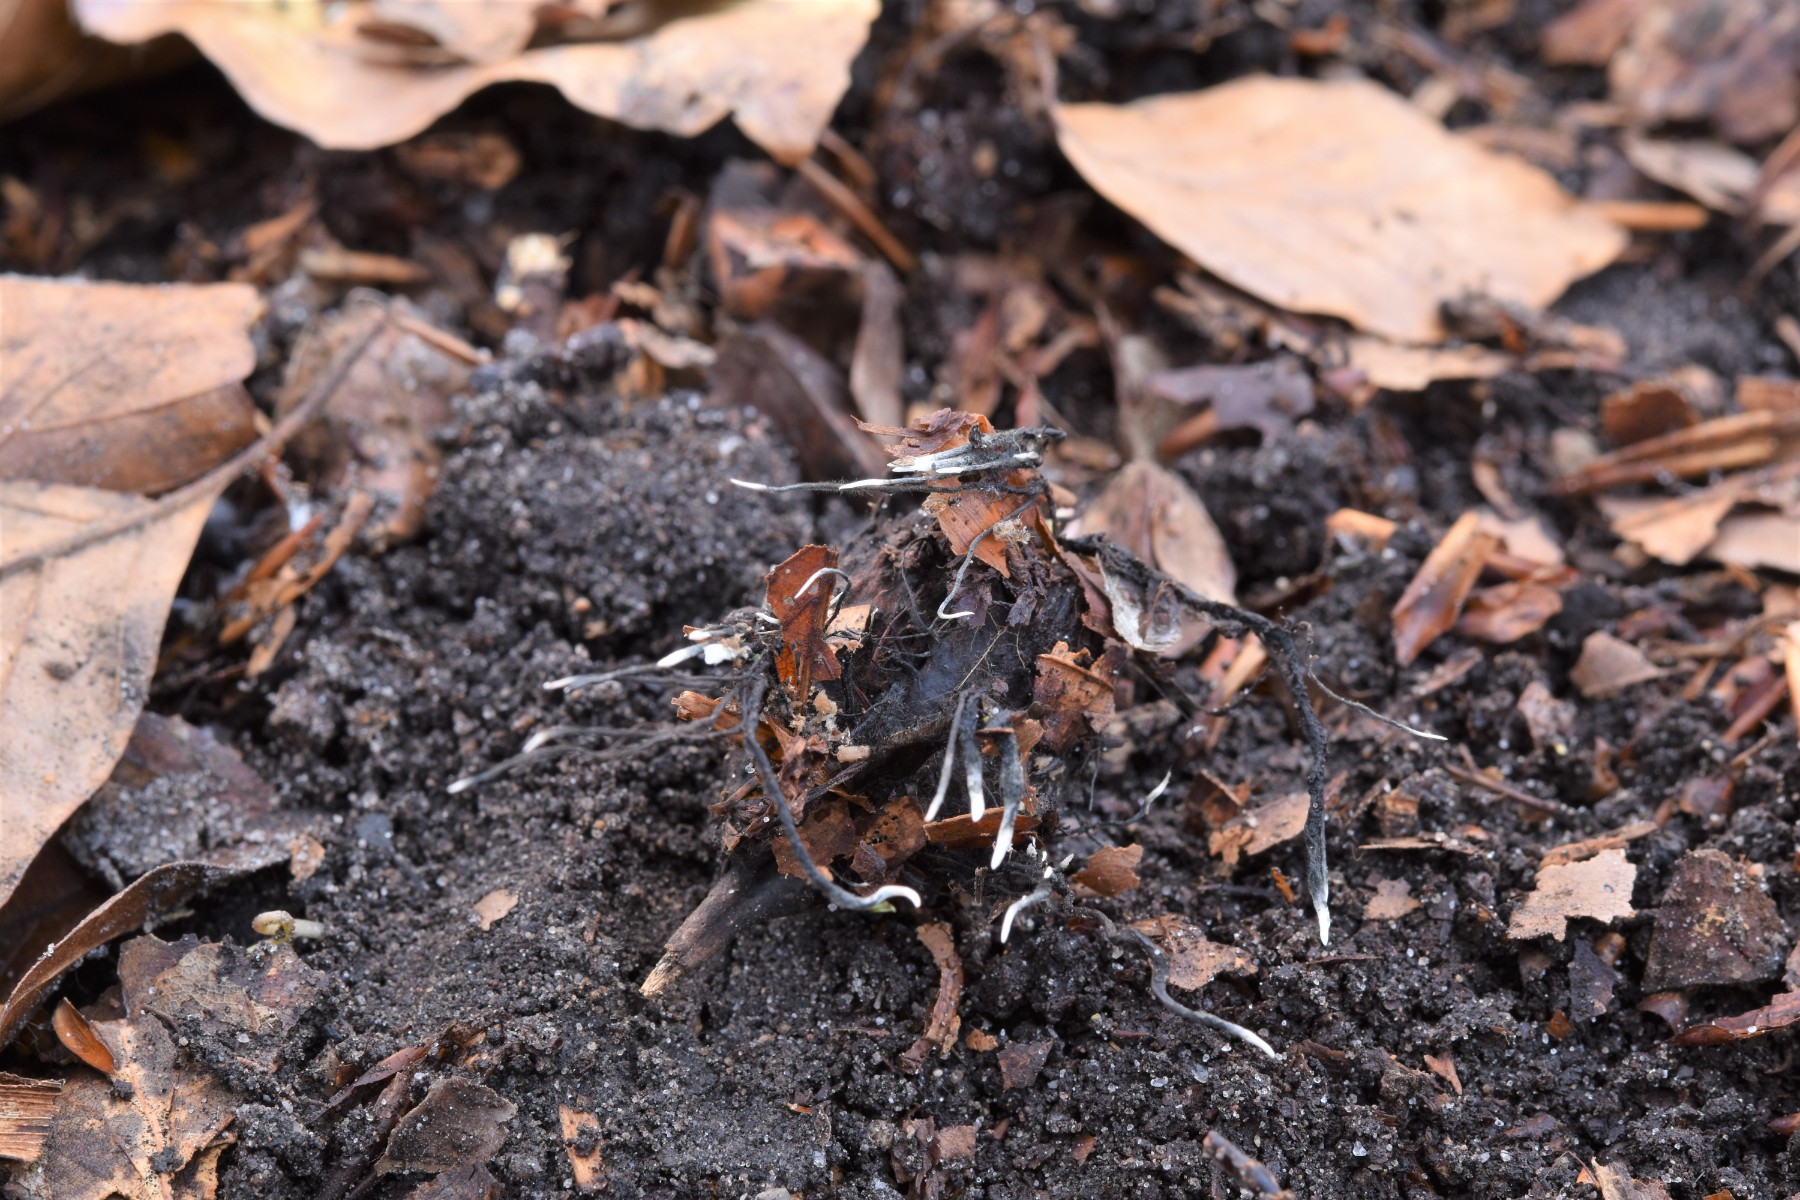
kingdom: Fungi
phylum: Ascomycota
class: Sordariomycetes
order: Xylariales
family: Xylariaceae
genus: Xylaria
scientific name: Xylaria carpophila
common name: bogskål-stødsvamp
